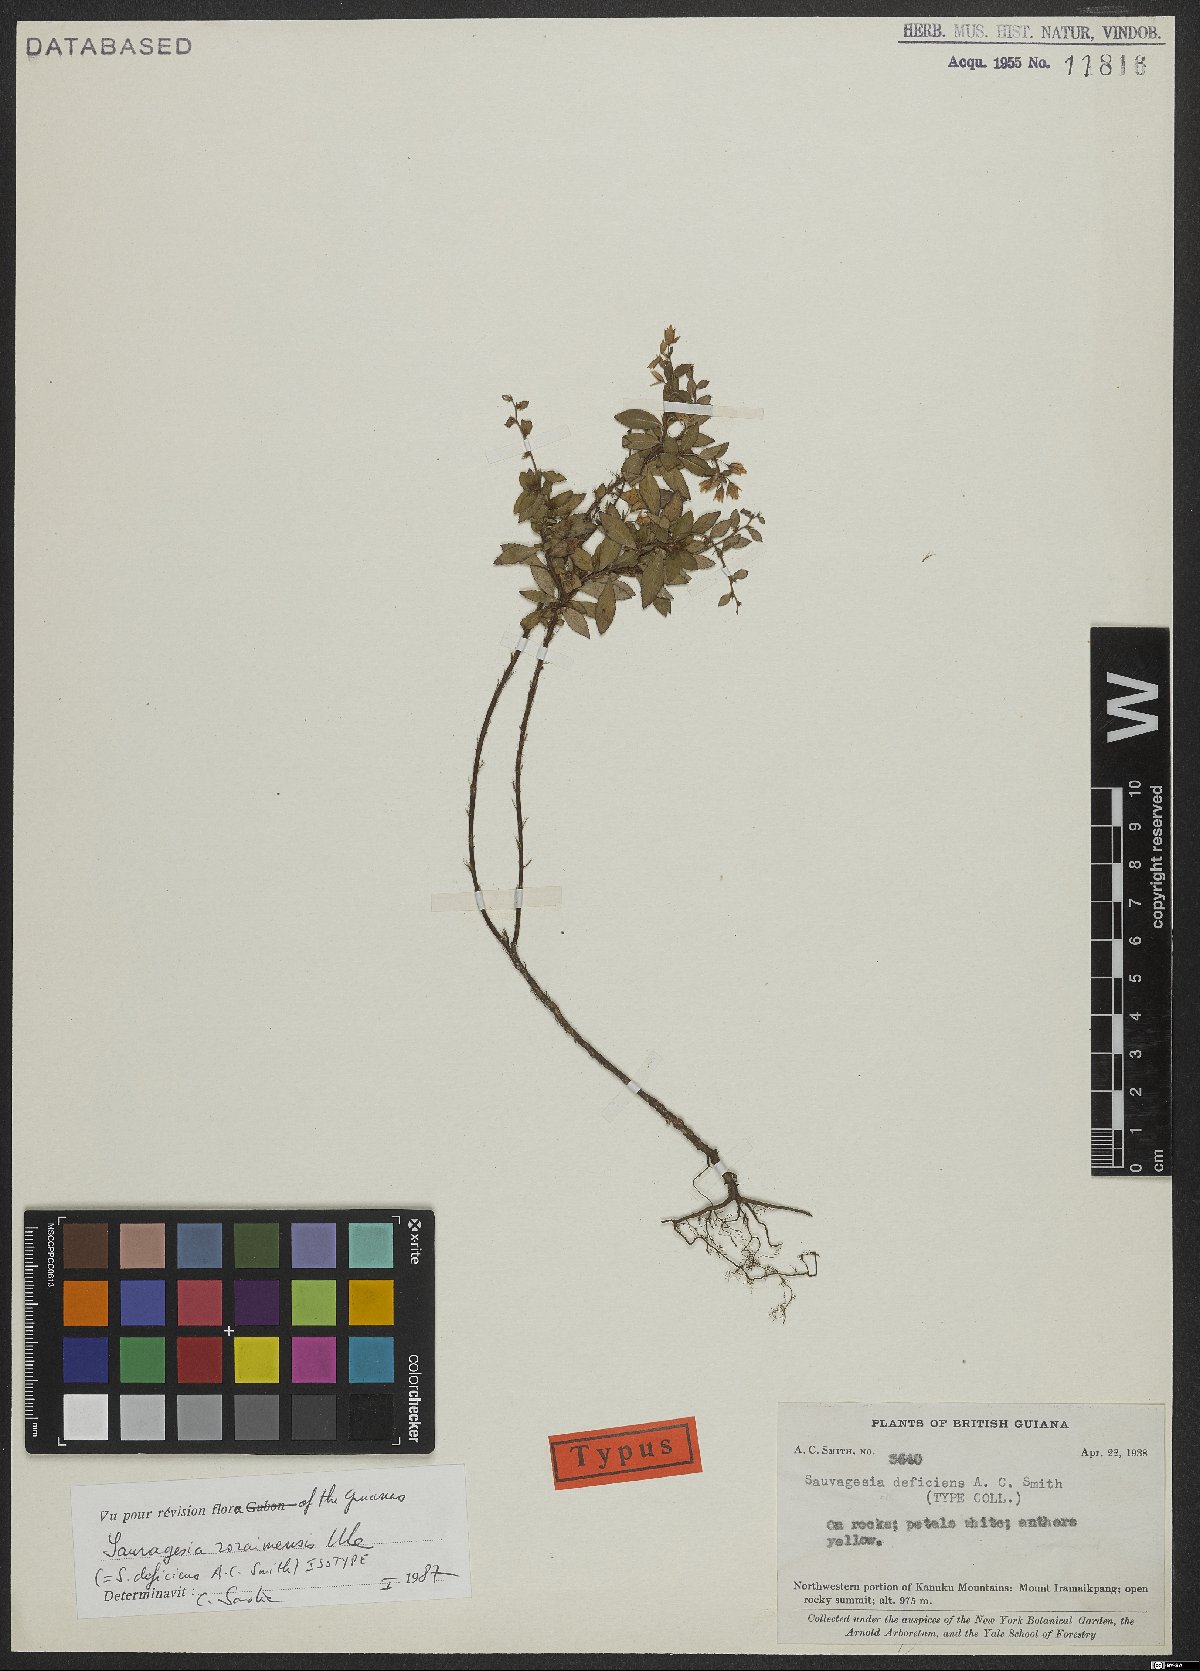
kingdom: Plantae
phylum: Tracheophyta
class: Magnoliopsida
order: Malpighiales
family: Ochnaceae
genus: Sauvagesia
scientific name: Sauvagesia roraimensis
